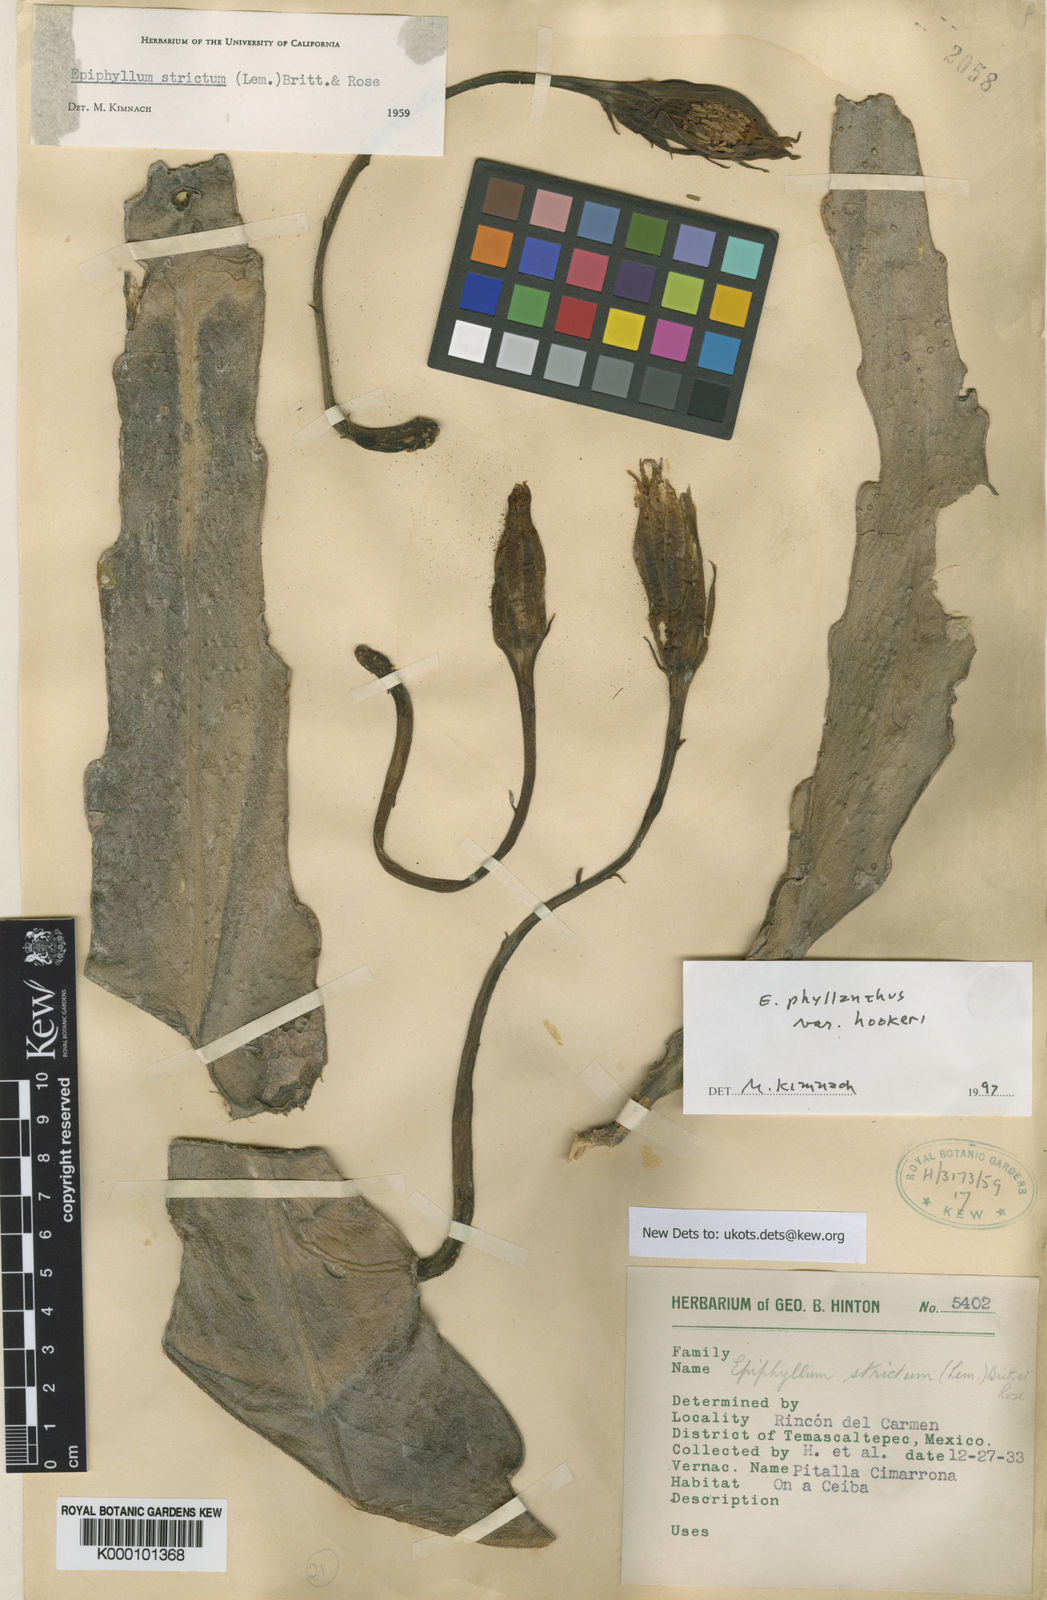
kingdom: Plantae
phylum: Tracheophyta
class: Magnoliopsida
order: Caryophyllales
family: Cactaceae
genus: Epiphyllum
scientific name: Epiphyllum phyllanthus
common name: Climbing cactus
